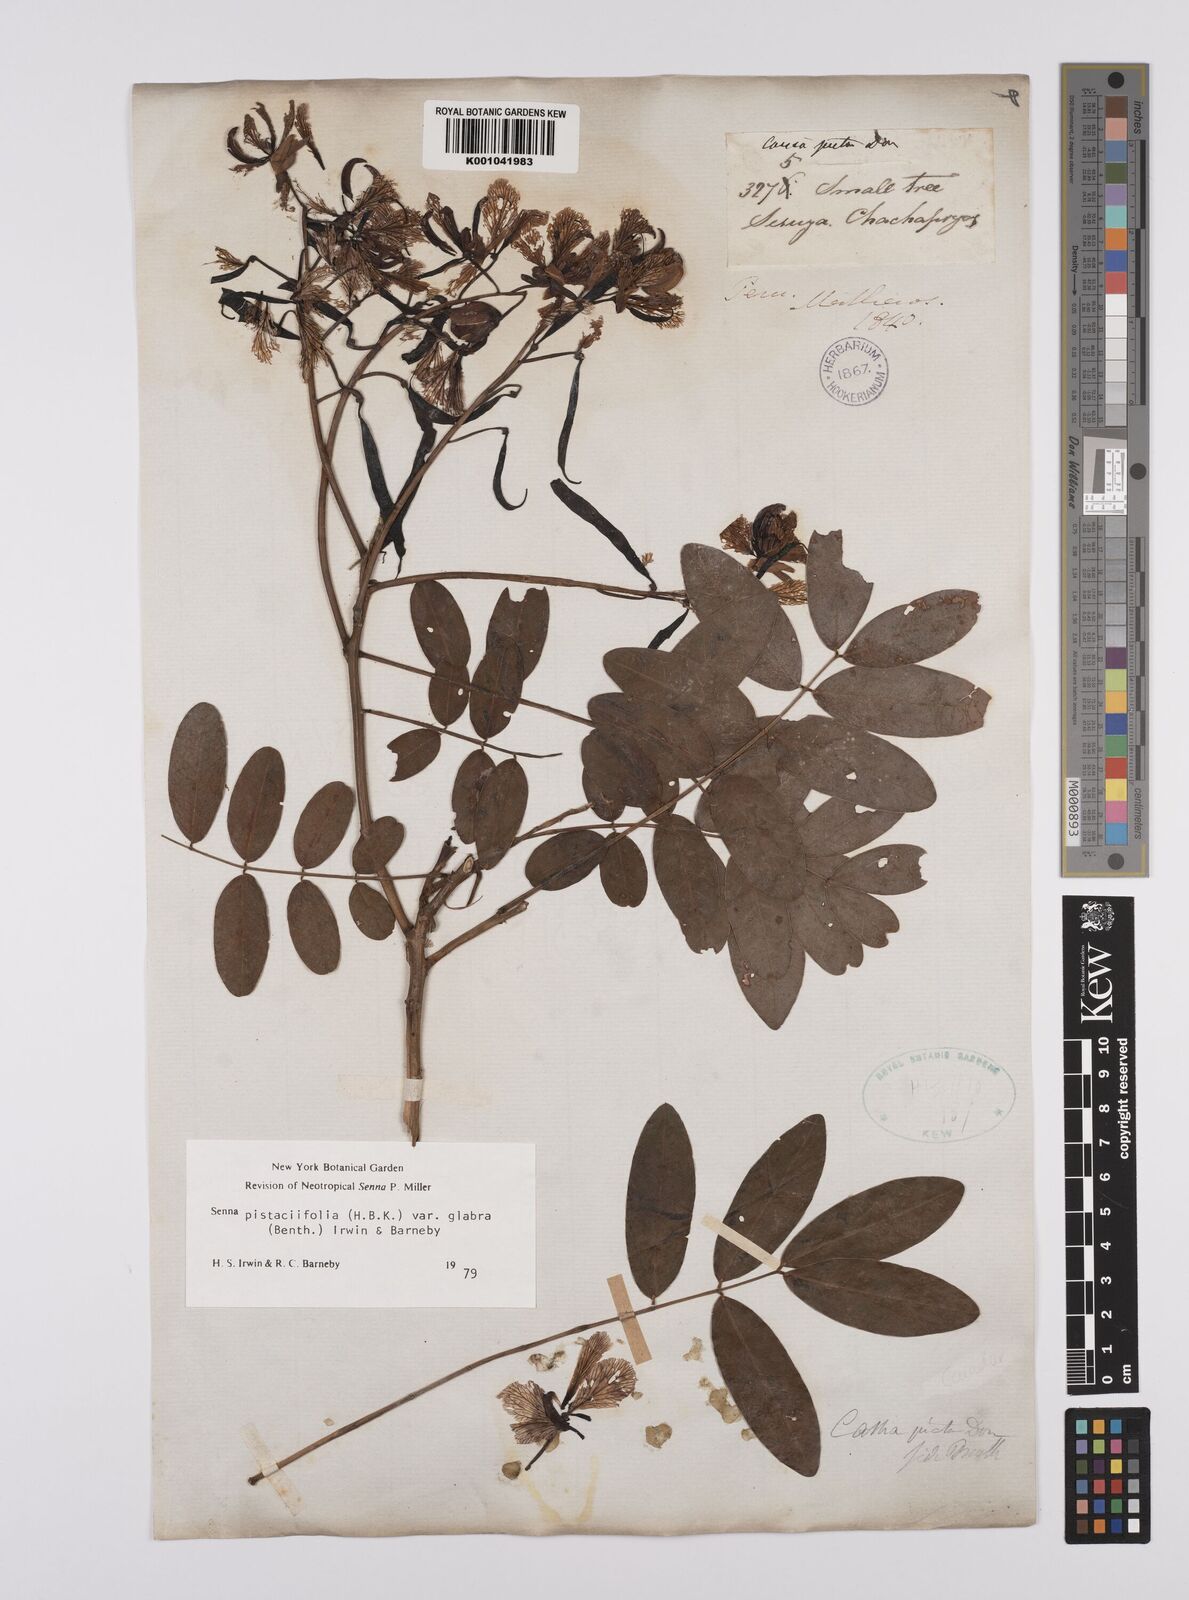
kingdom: Plantae
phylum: Tracheophyta
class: Magnoliopsida
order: Fabales
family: Fabaceae
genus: Senna
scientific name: Senna pistaciifolia
